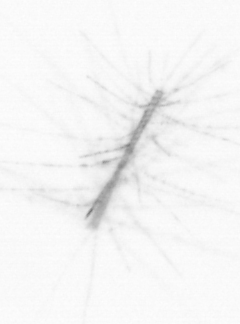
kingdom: Chromista
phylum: Ochrophyta
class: Bacillariophyceae
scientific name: Bacillariophyceae
